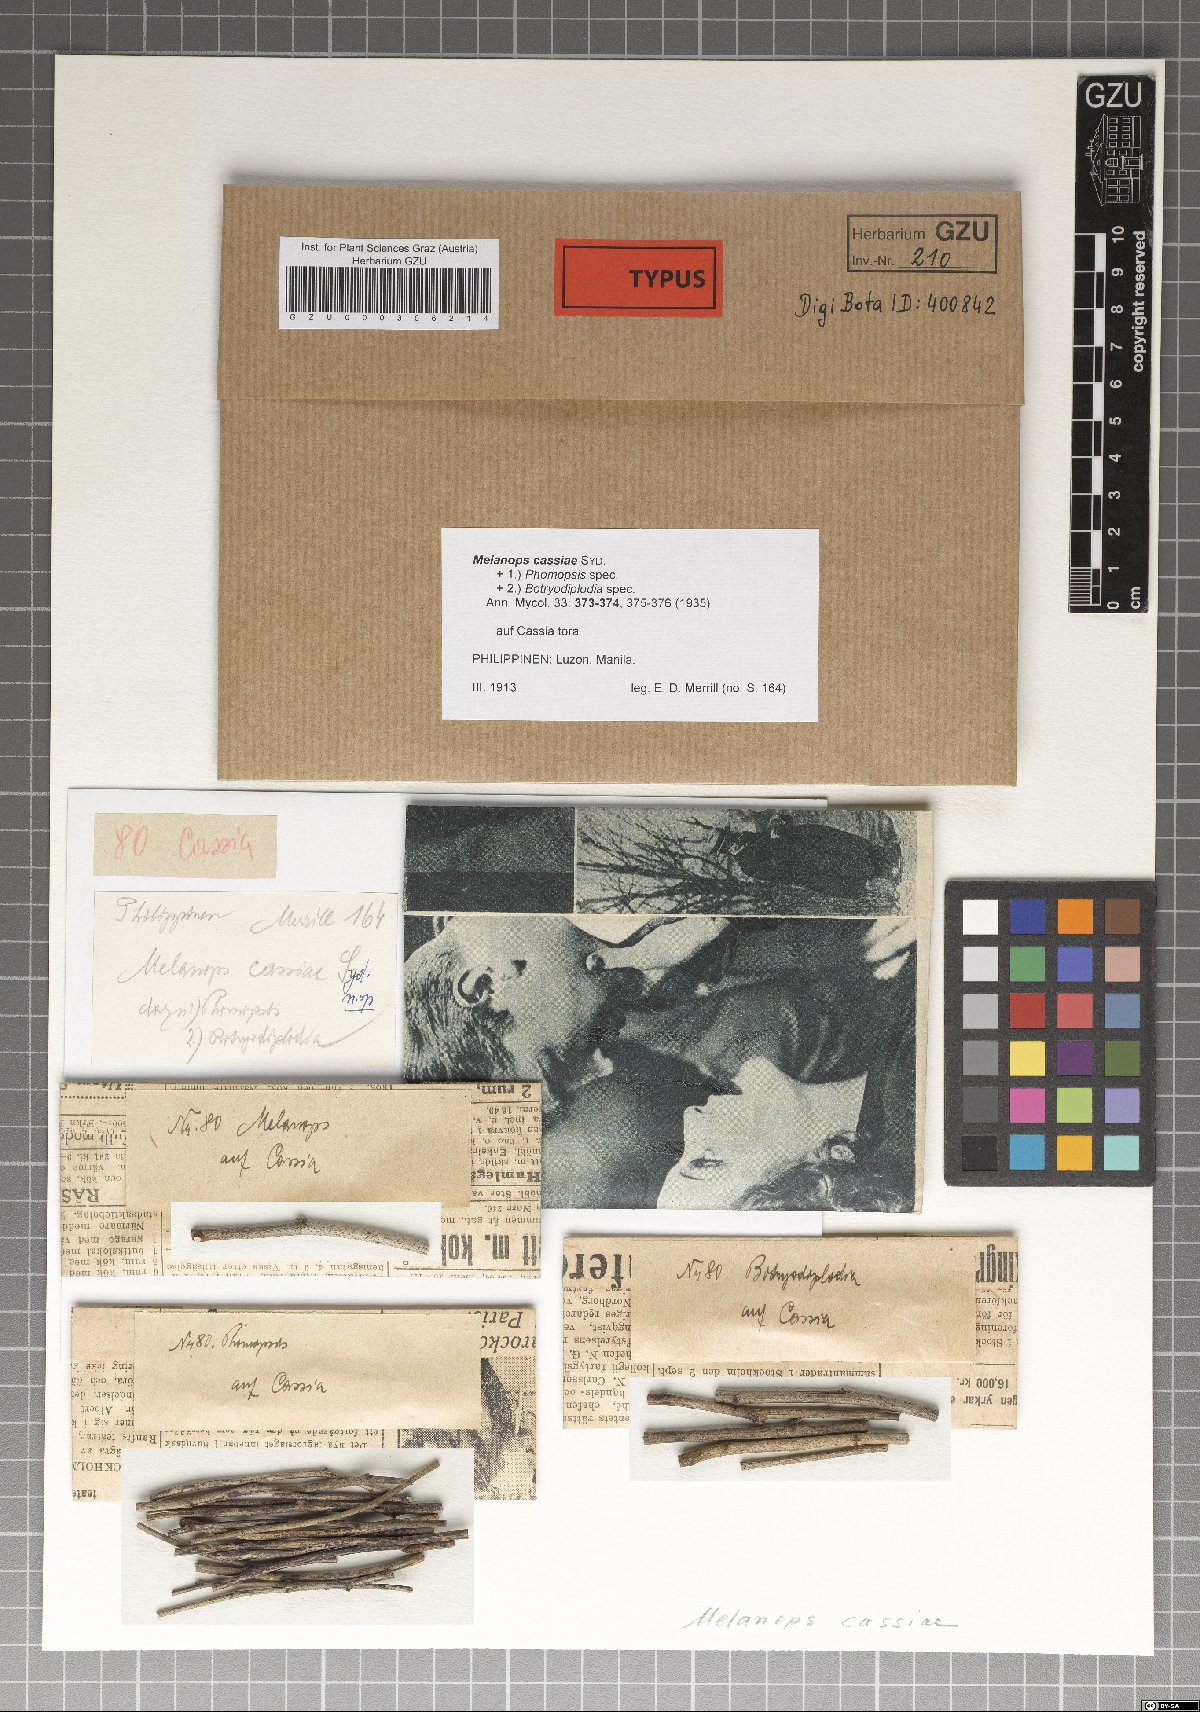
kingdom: Fungi
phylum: Ascomycota
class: Dothideomycetes
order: Botryosphaeriales
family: Botryosphaeriaceae
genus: Melanops
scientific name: Melanops cassiae
